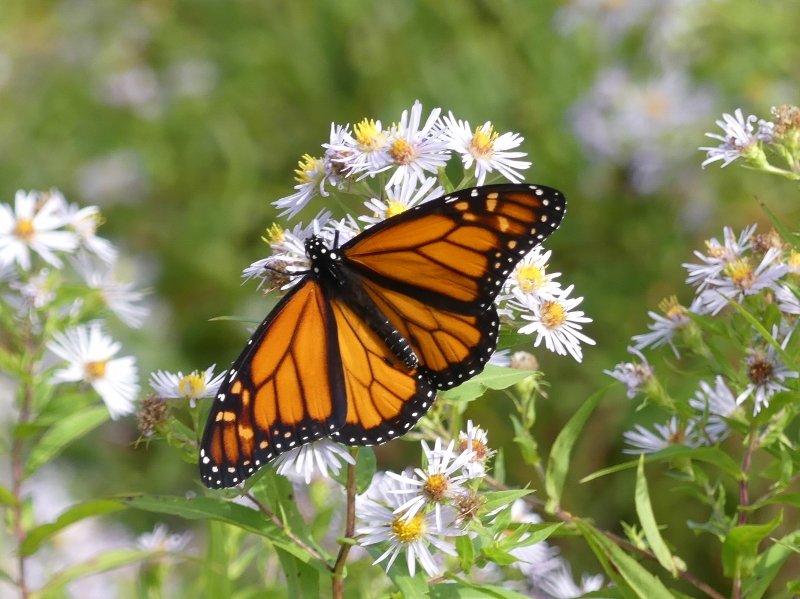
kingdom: Animalia
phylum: Arthropoda
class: Insecta
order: Lepidoptera
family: Nymphalidae
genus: Danaus
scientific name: Danaus plexippus
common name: Monarch
